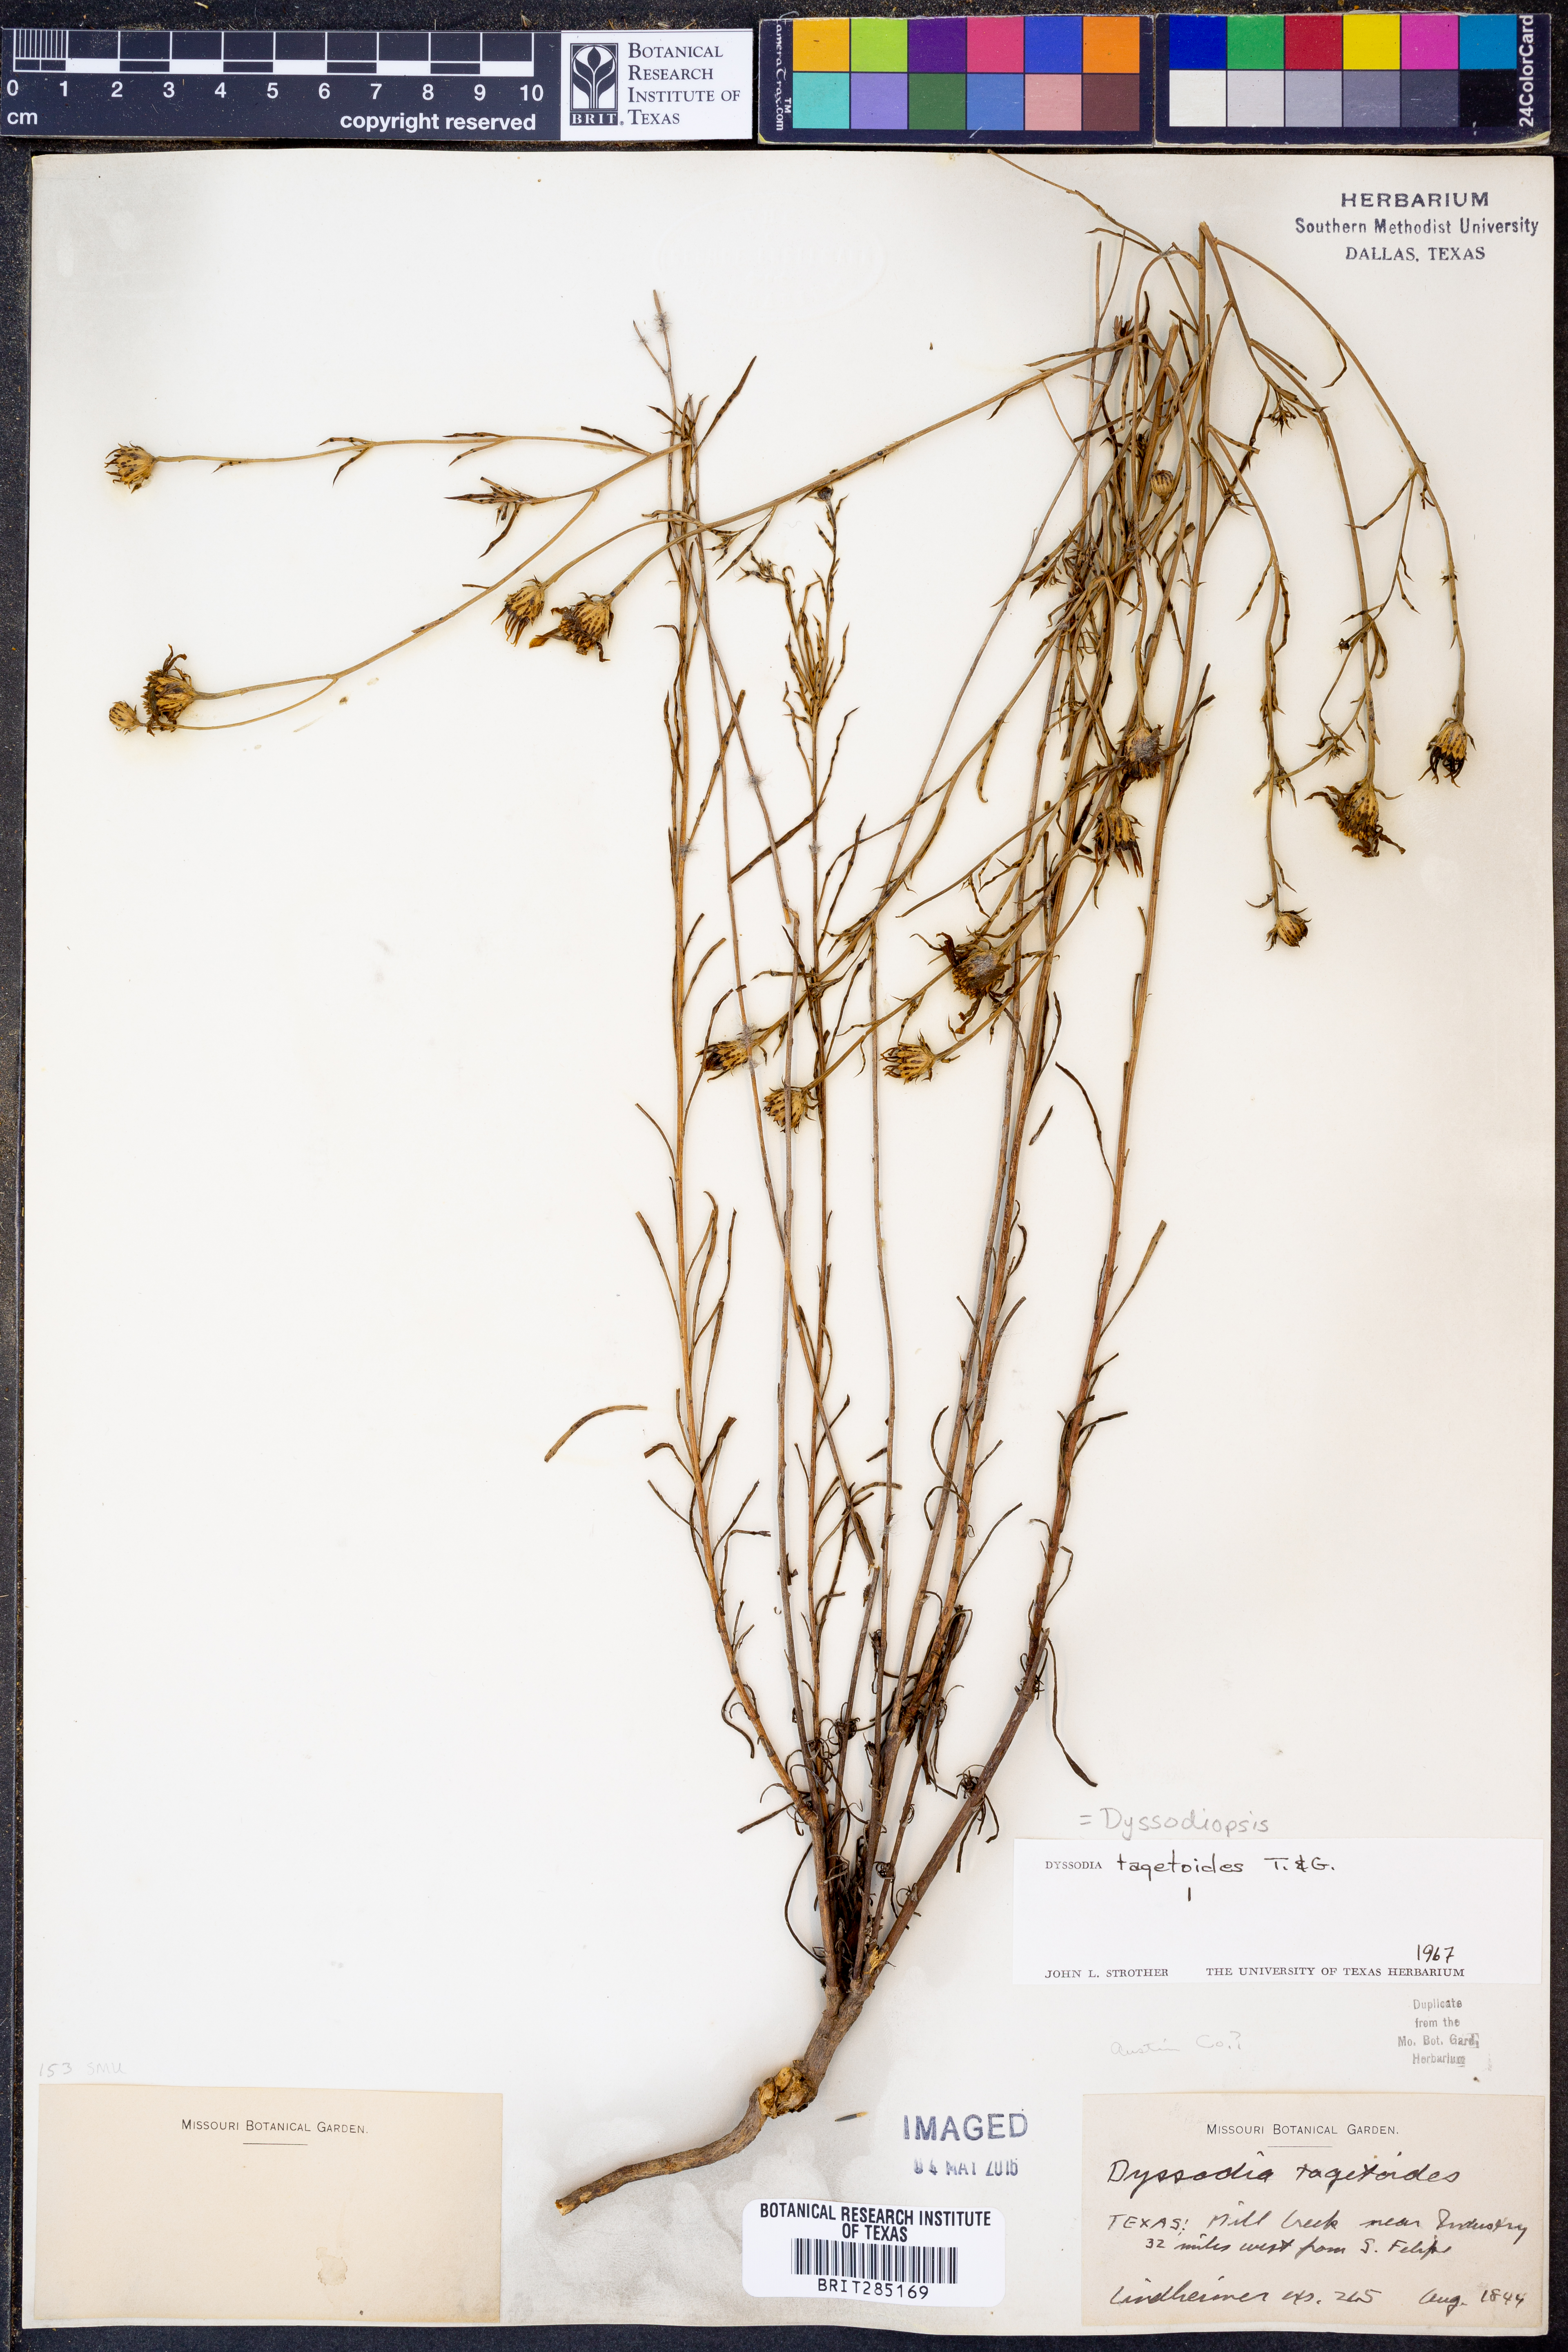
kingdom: Plantae
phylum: Tracheophyta
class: Magnoliopsida
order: Asterales
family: Asteraceae
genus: Dysodiopsis
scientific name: Dysodiopsis tagetoides
